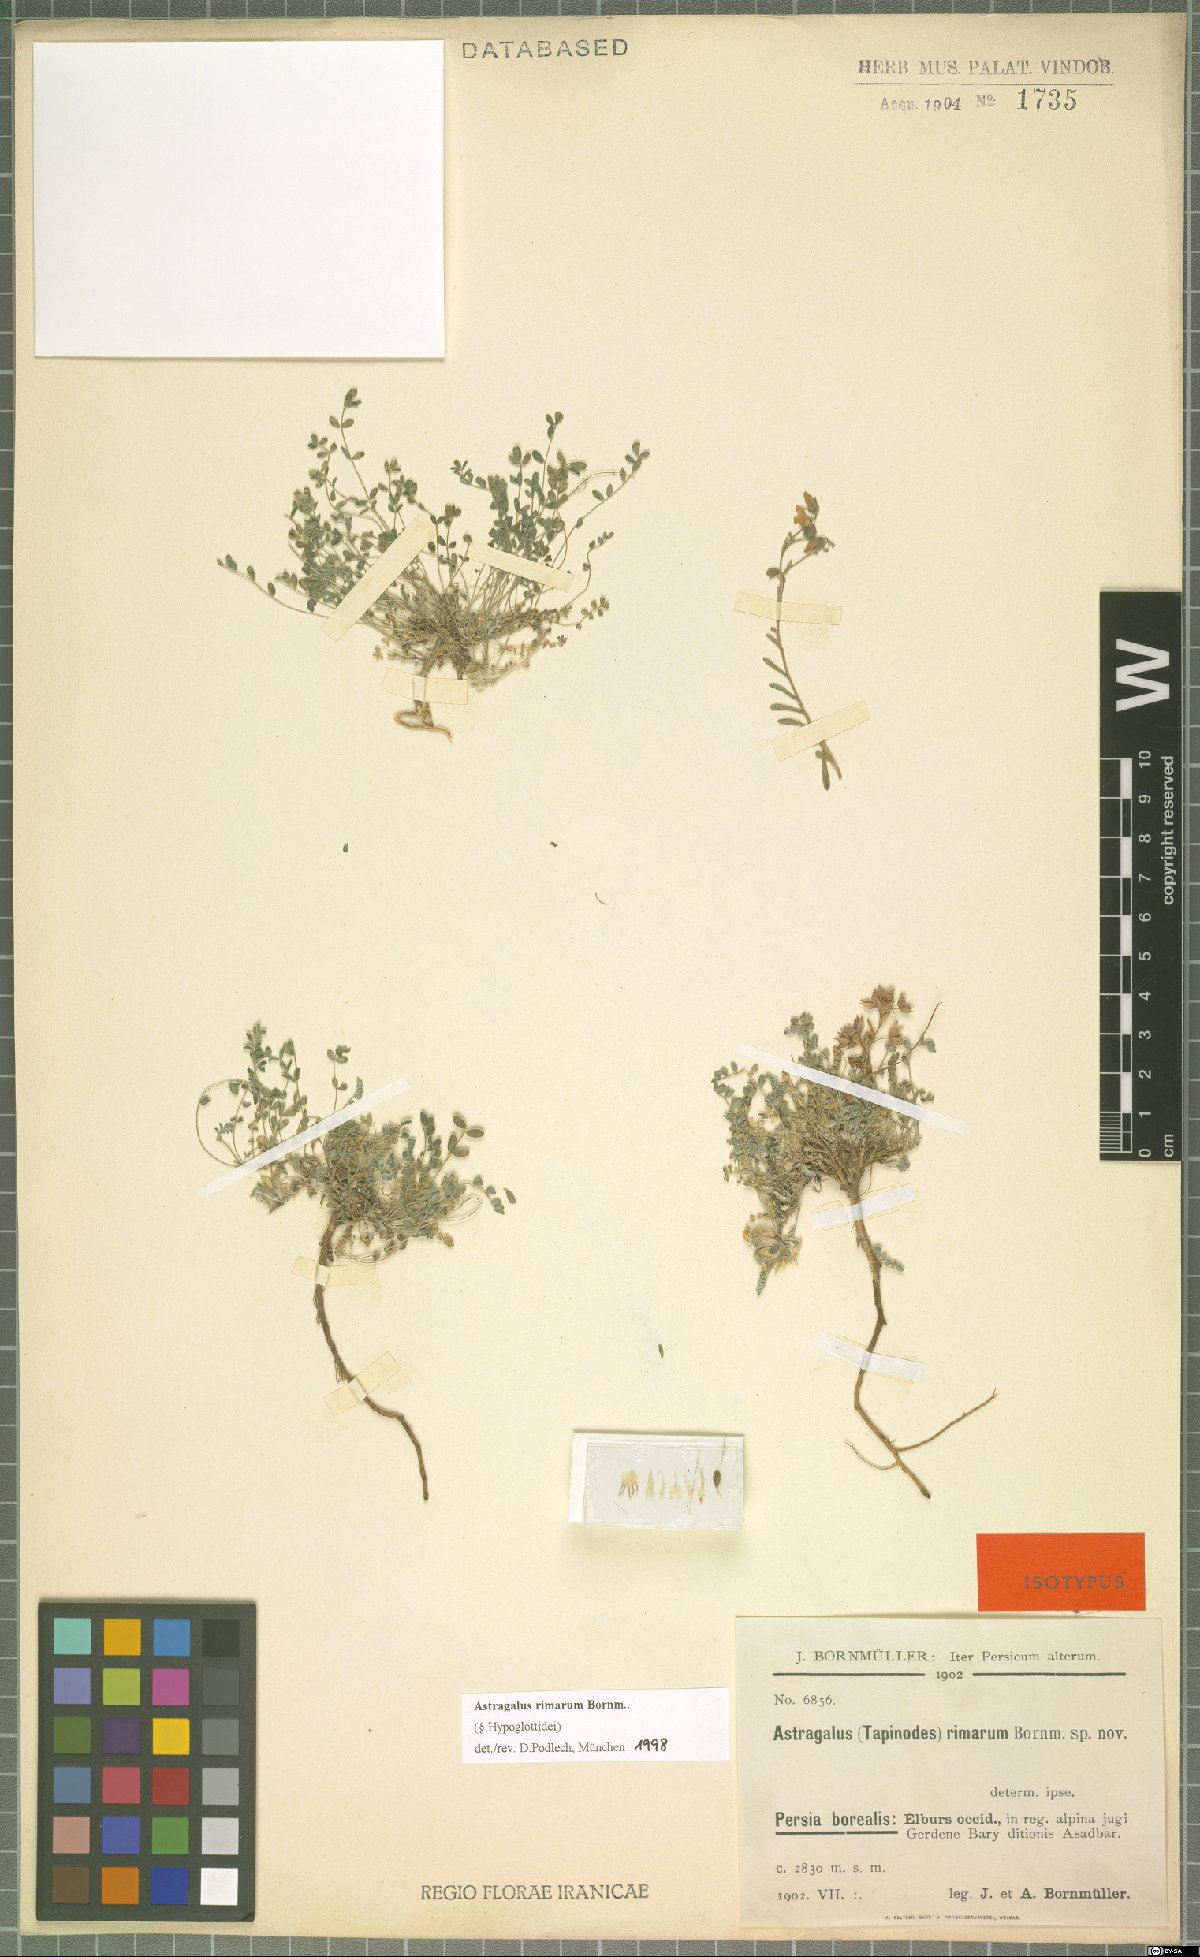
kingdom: Plantae
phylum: Tracheophyta
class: Magnoliopsida
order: Fabales
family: Fabaceae
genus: Astragalus
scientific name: Astragalus rimarum
